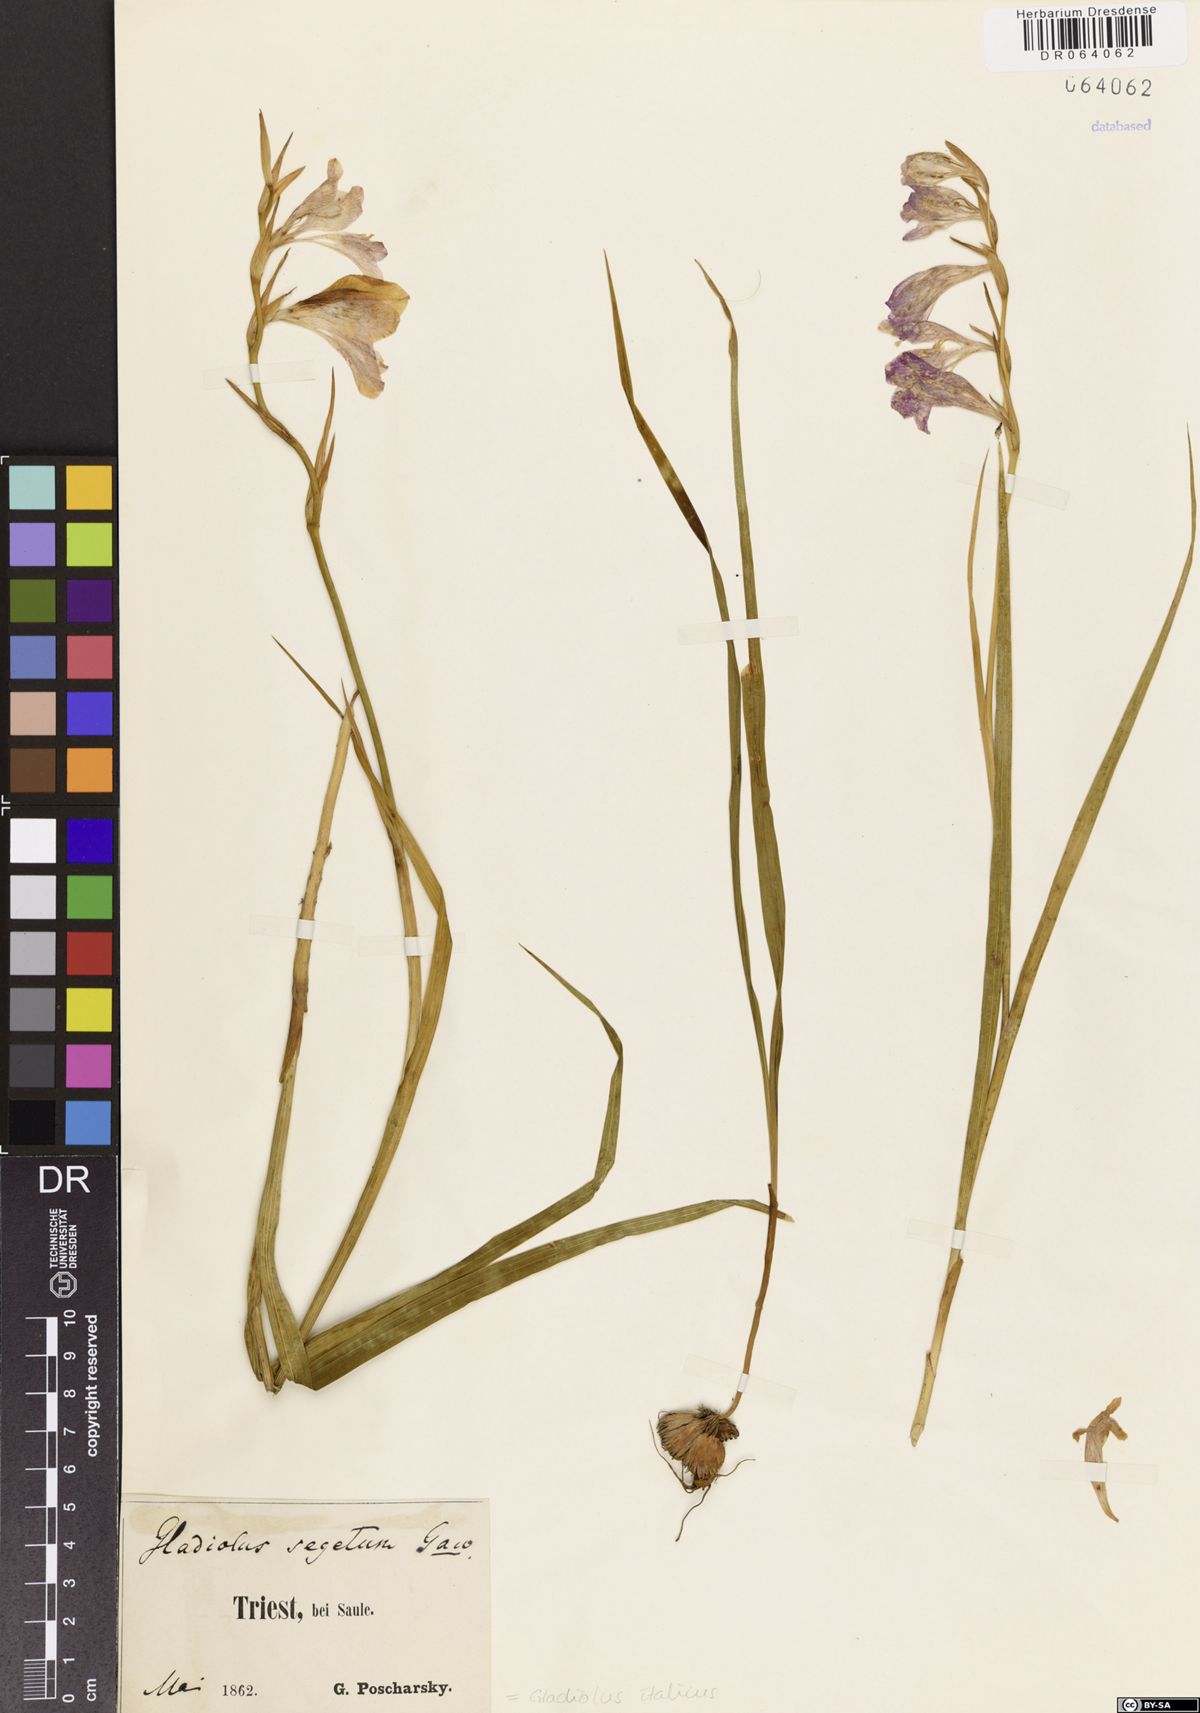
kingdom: Plantae
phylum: Tracheophyta
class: Liliopsida
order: Asparagales
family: Iridaceae
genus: Gladiolus
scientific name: Gladiolus italicus
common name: Field gladiolus
